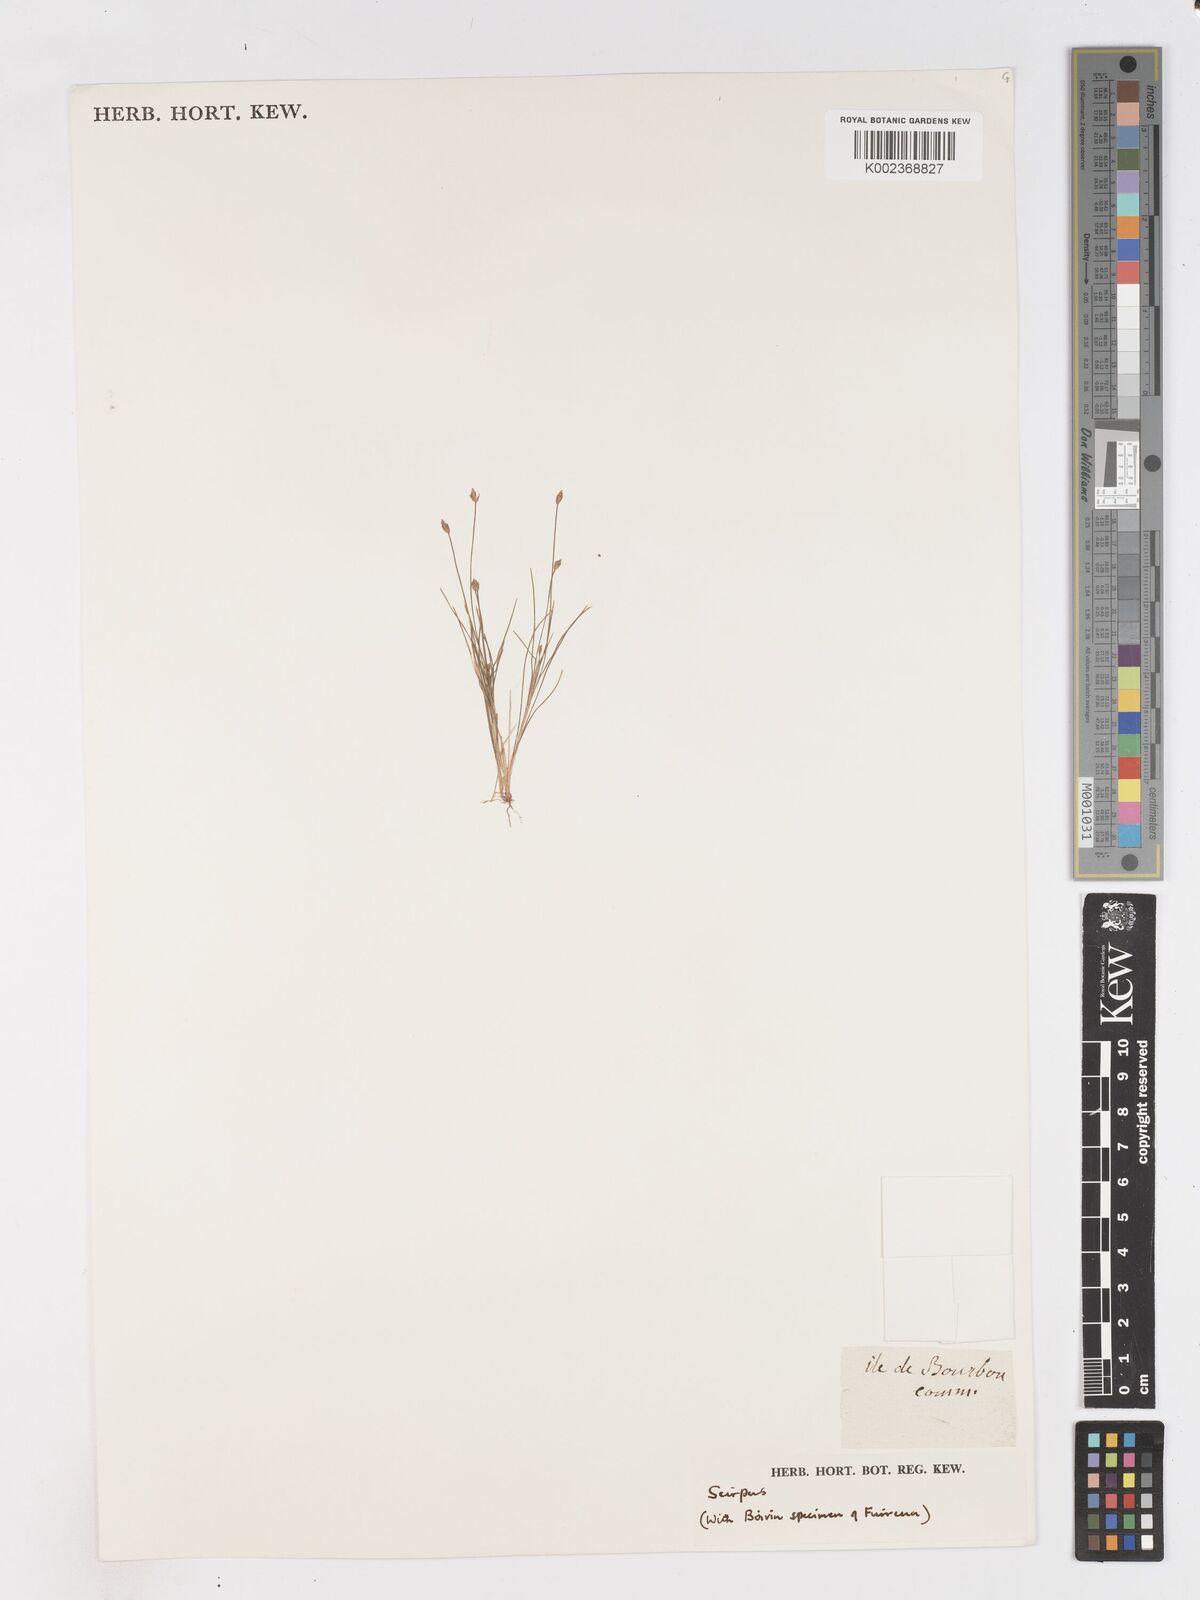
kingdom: Plantae
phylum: Tracheophyta
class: Liliopsida
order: Poales
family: Cyperaceae
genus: Isolepis
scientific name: Isolepis fluitans
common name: Floating club-rush
